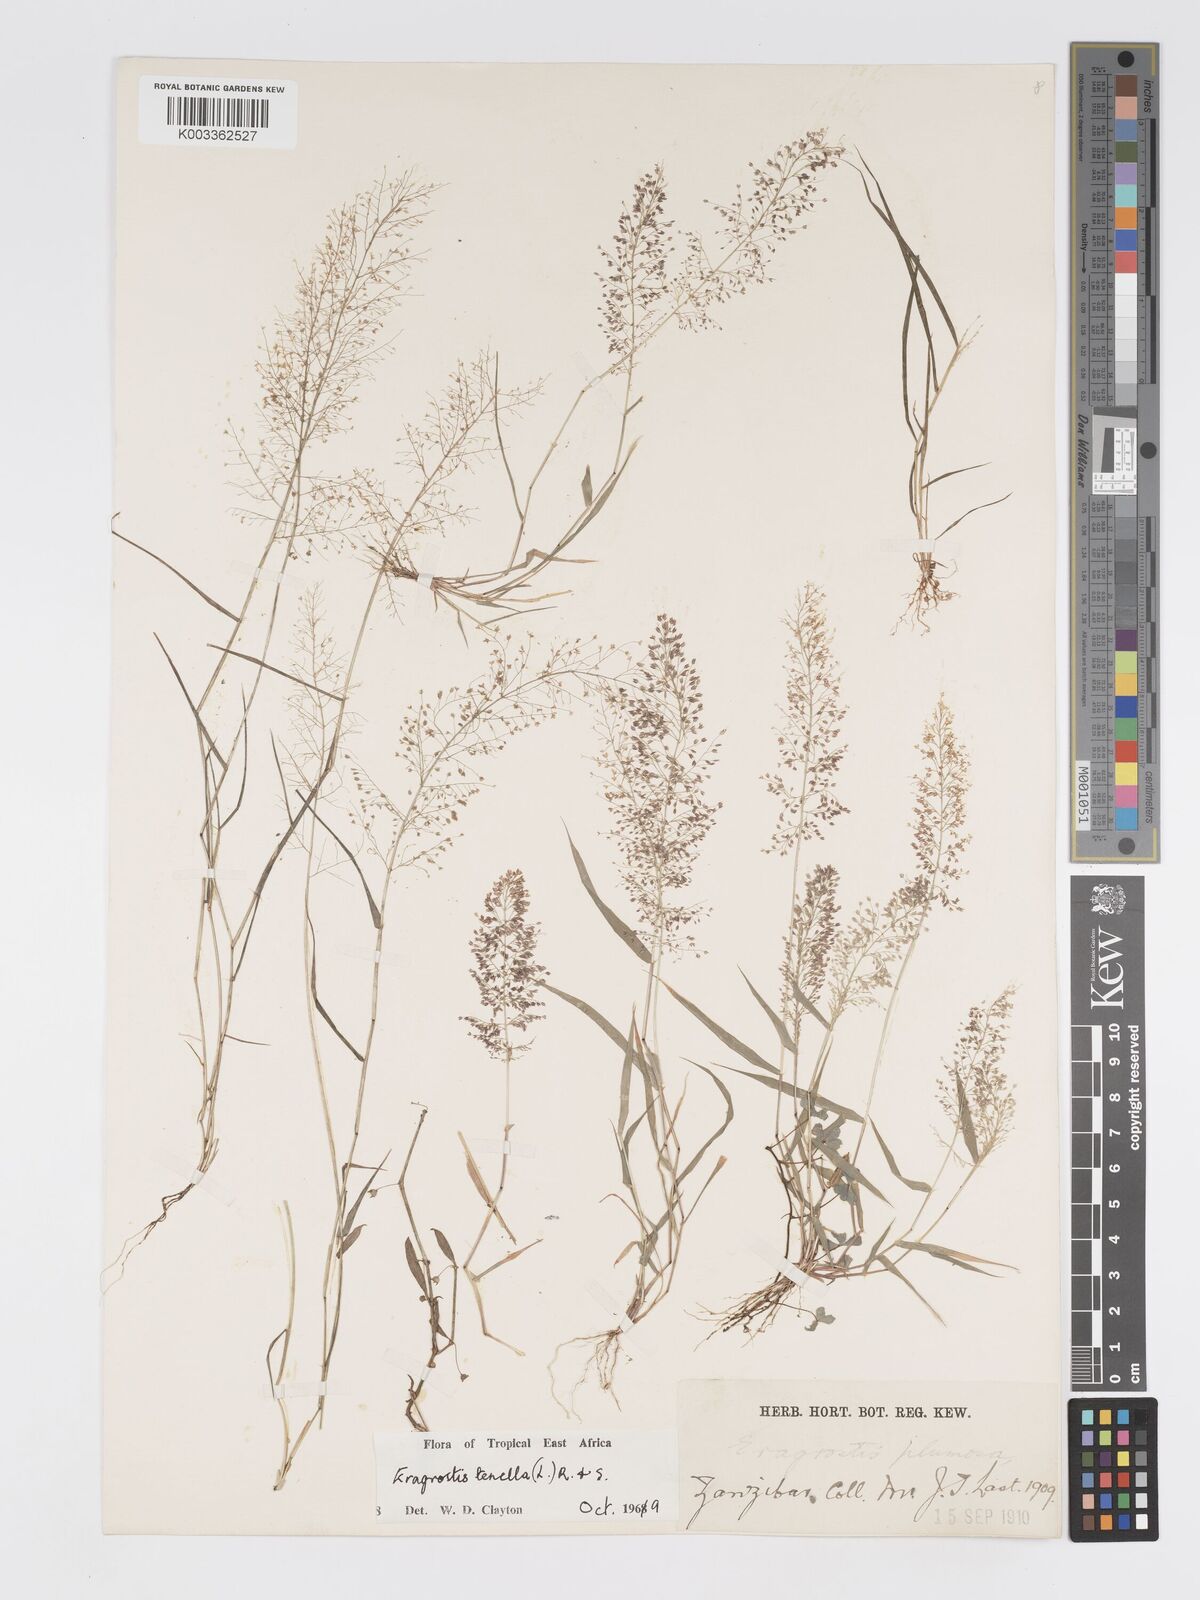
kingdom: Plantae
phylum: Tracheophyta
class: Liliopsida
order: Poales
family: Poaceae
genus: Eragrostis
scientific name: Eragrostis tenella
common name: Japanese lovegrass
